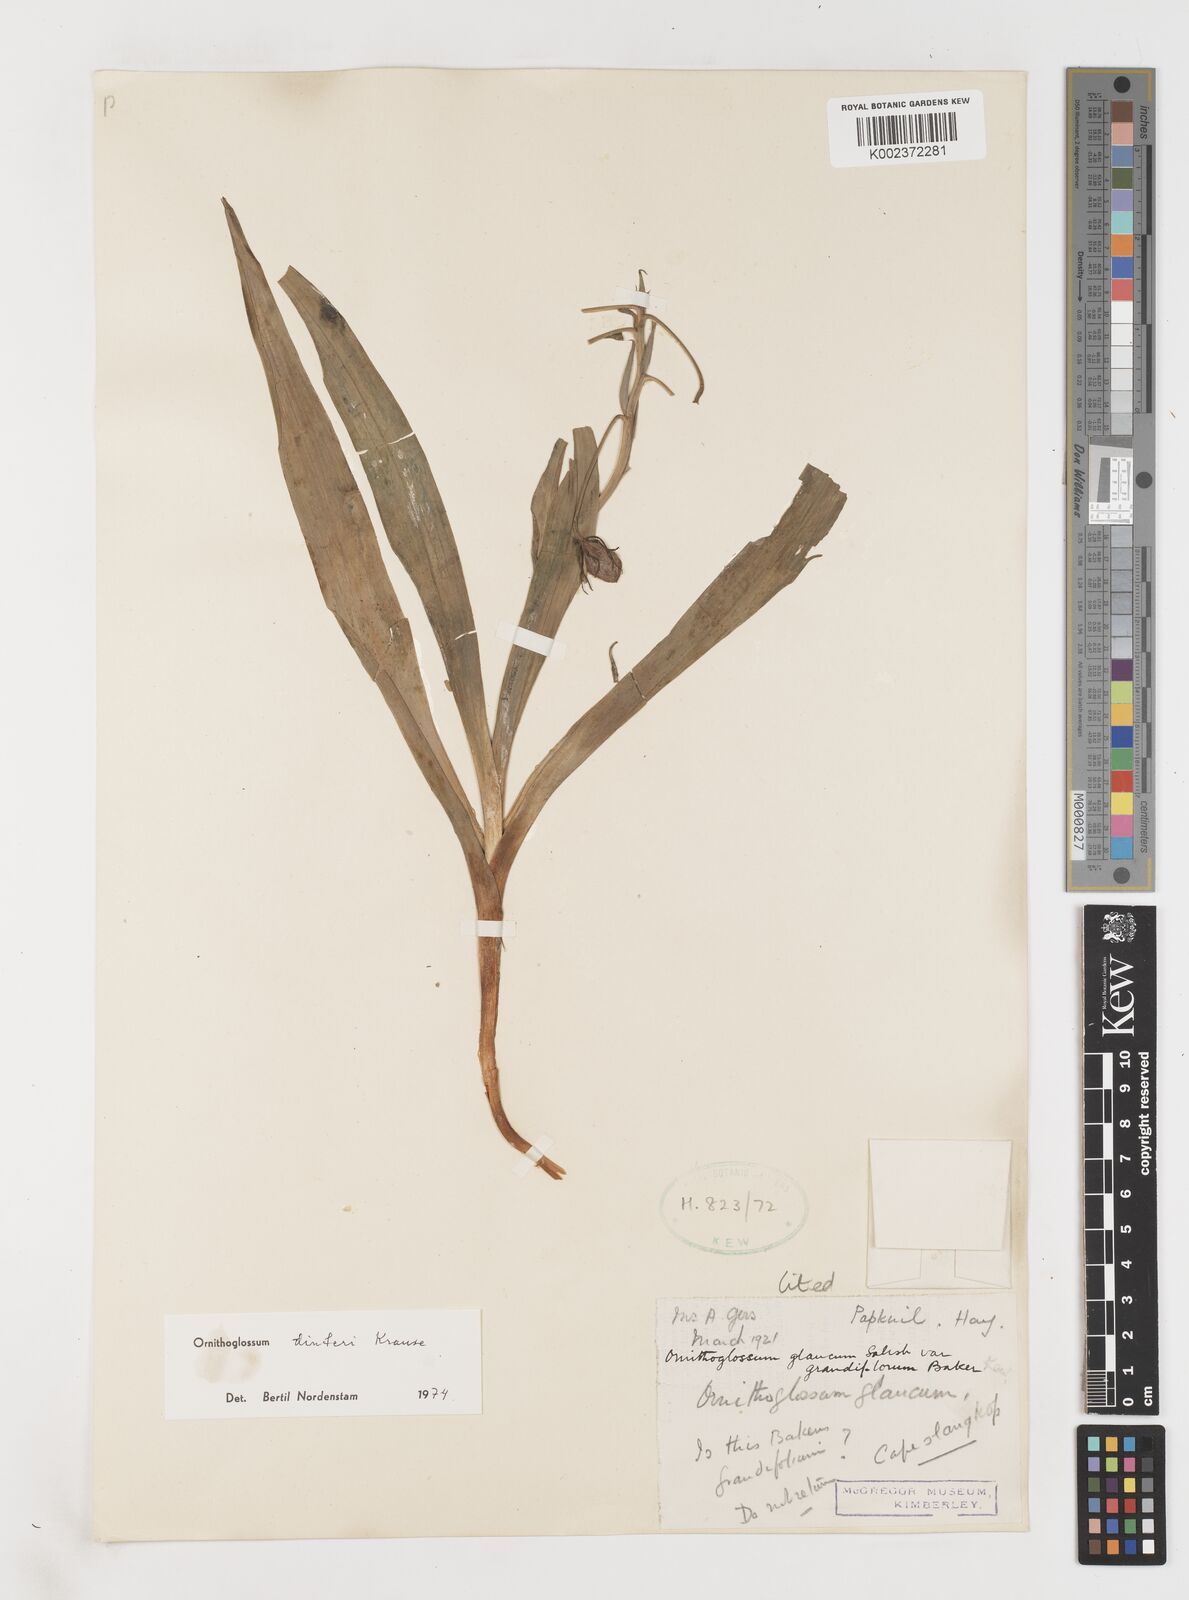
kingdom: Plantae
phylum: Tracheophyta
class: Liliopsida
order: Liliales
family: Colchicaceae
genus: Ornithoglossum
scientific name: Ornithoglossum dinteri
